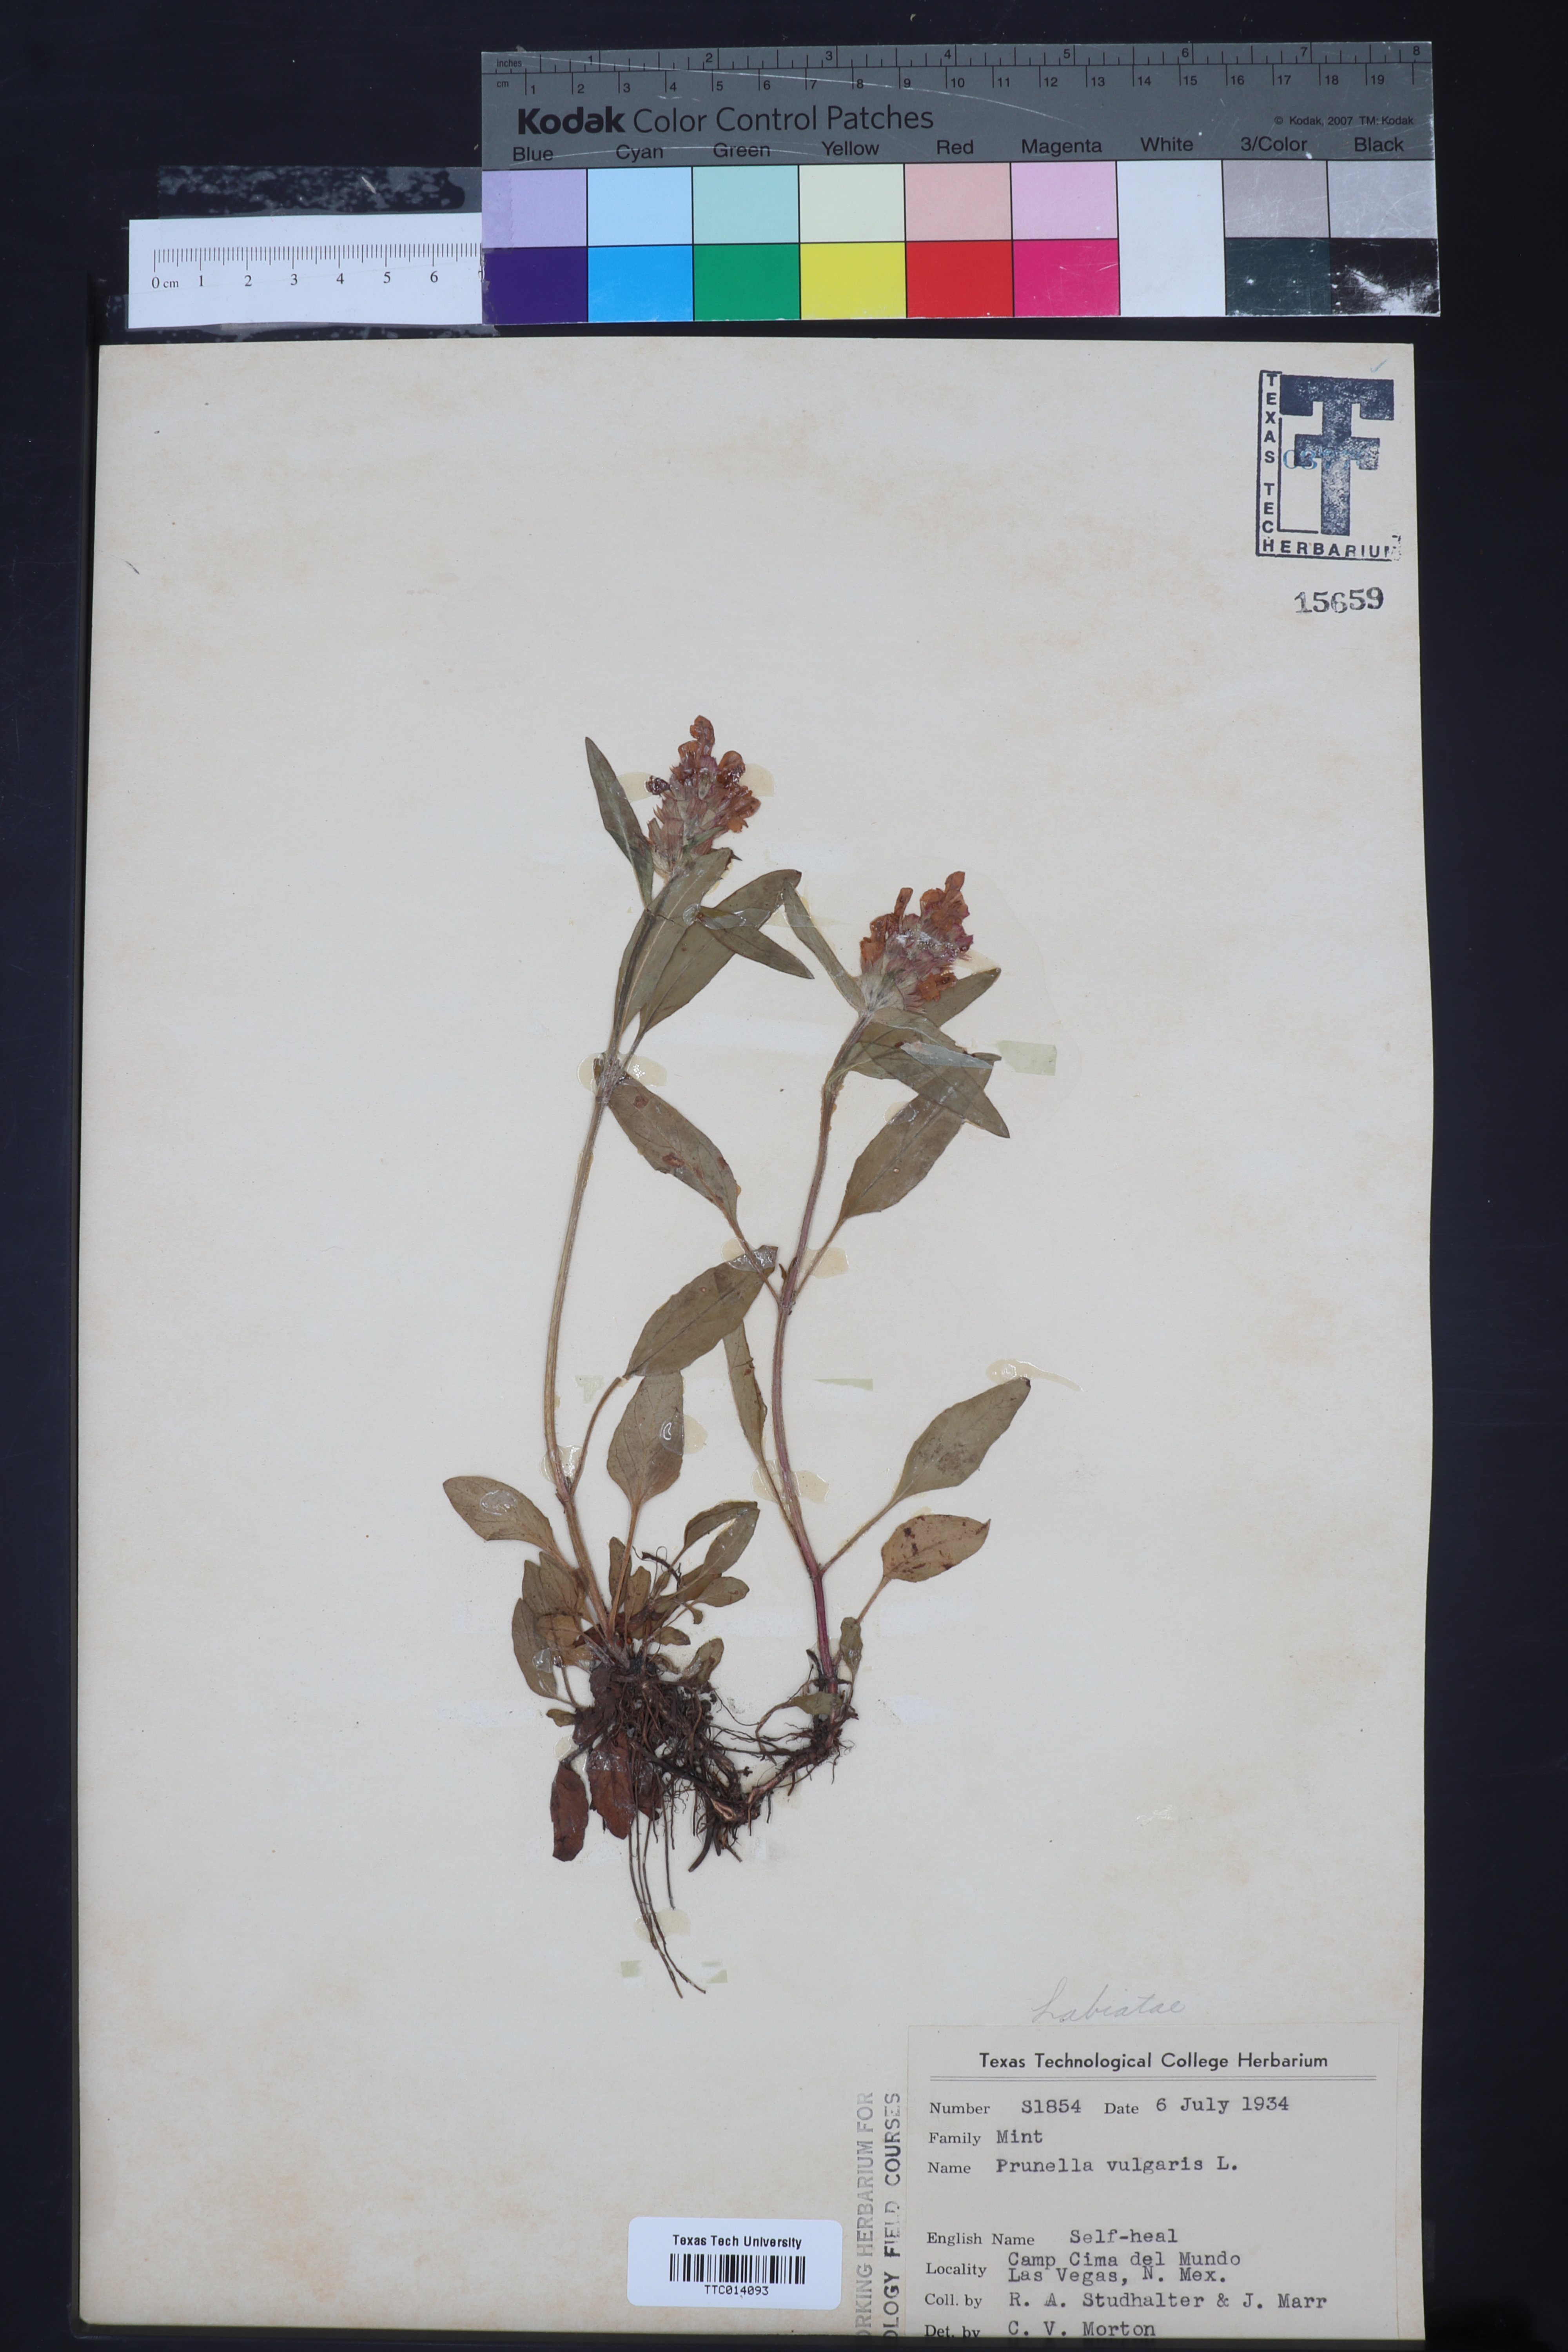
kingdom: Plantae
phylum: Tracheophyta
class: Magnoliopsida
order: Lamiales
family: Lamiaceae
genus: Prunella
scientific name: Prunella vulgaris
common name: Heal-all
